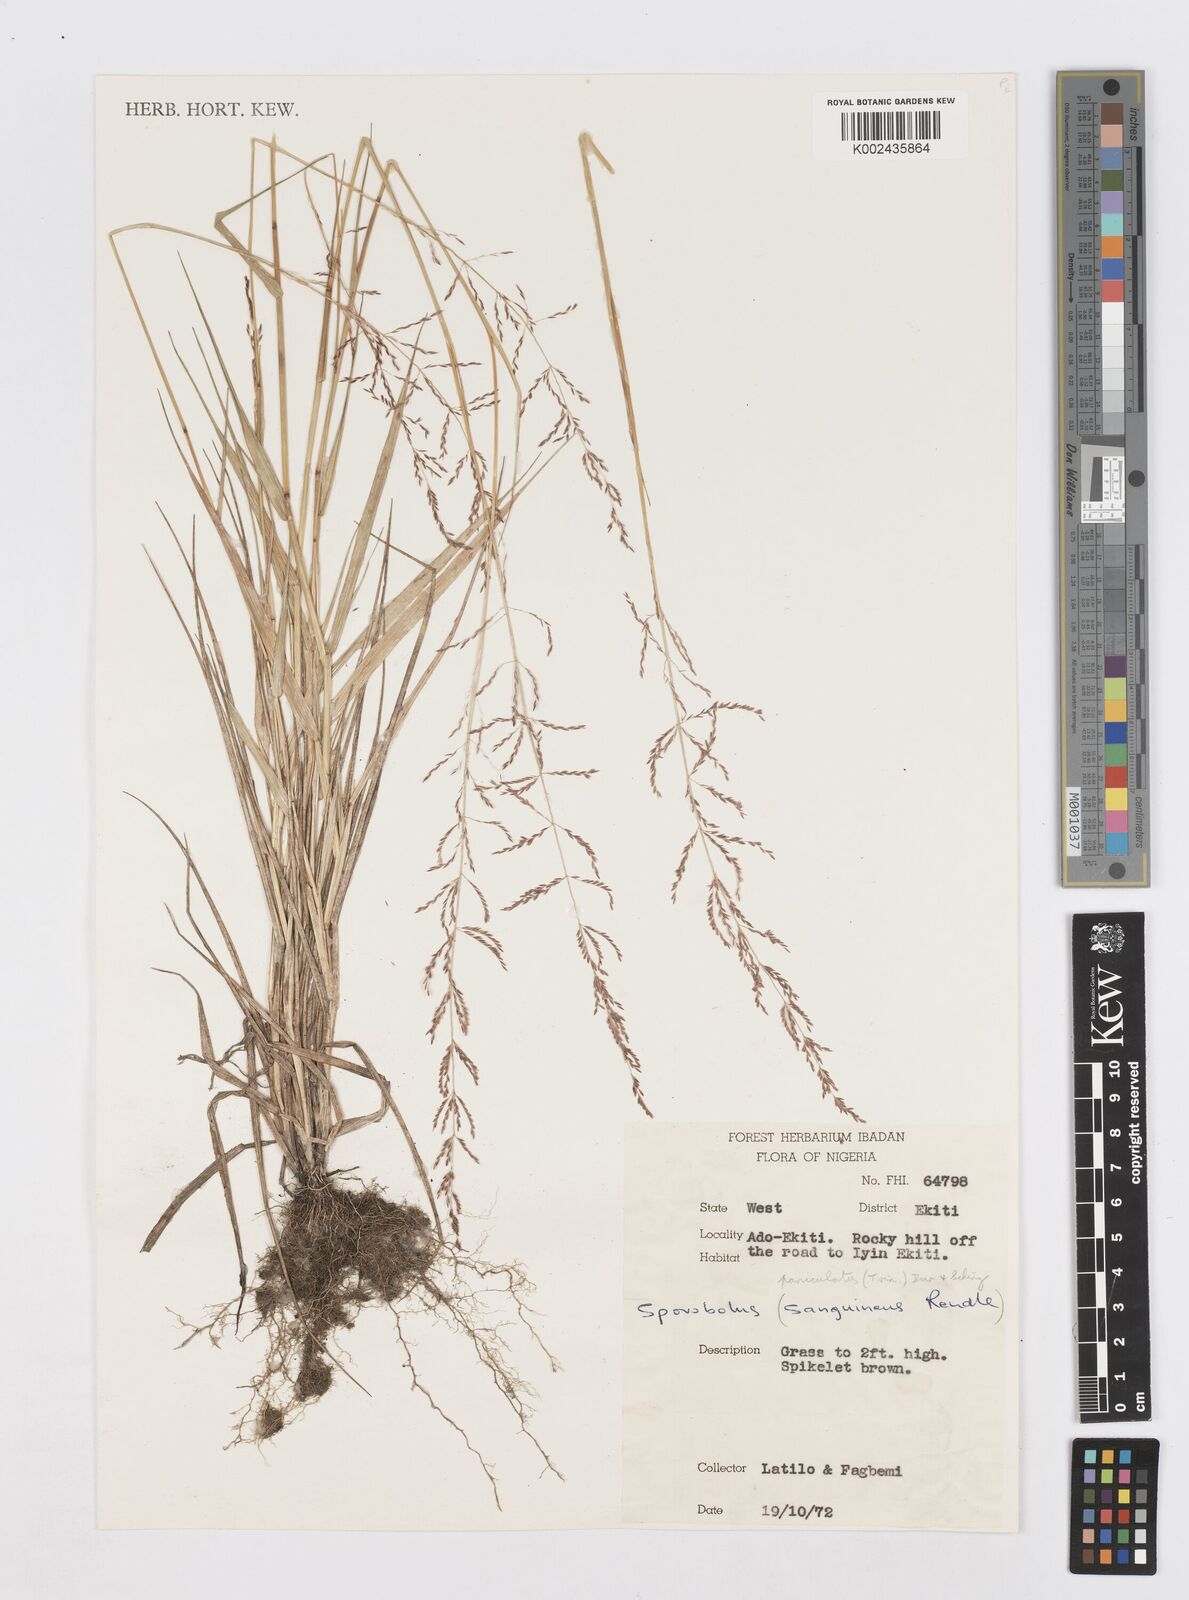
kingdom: Plantae
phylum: Tracheophyta
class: Liliopsida
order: Poales
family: Poaceae
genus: Sporobolus
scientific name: Sporobolus paniculatus
